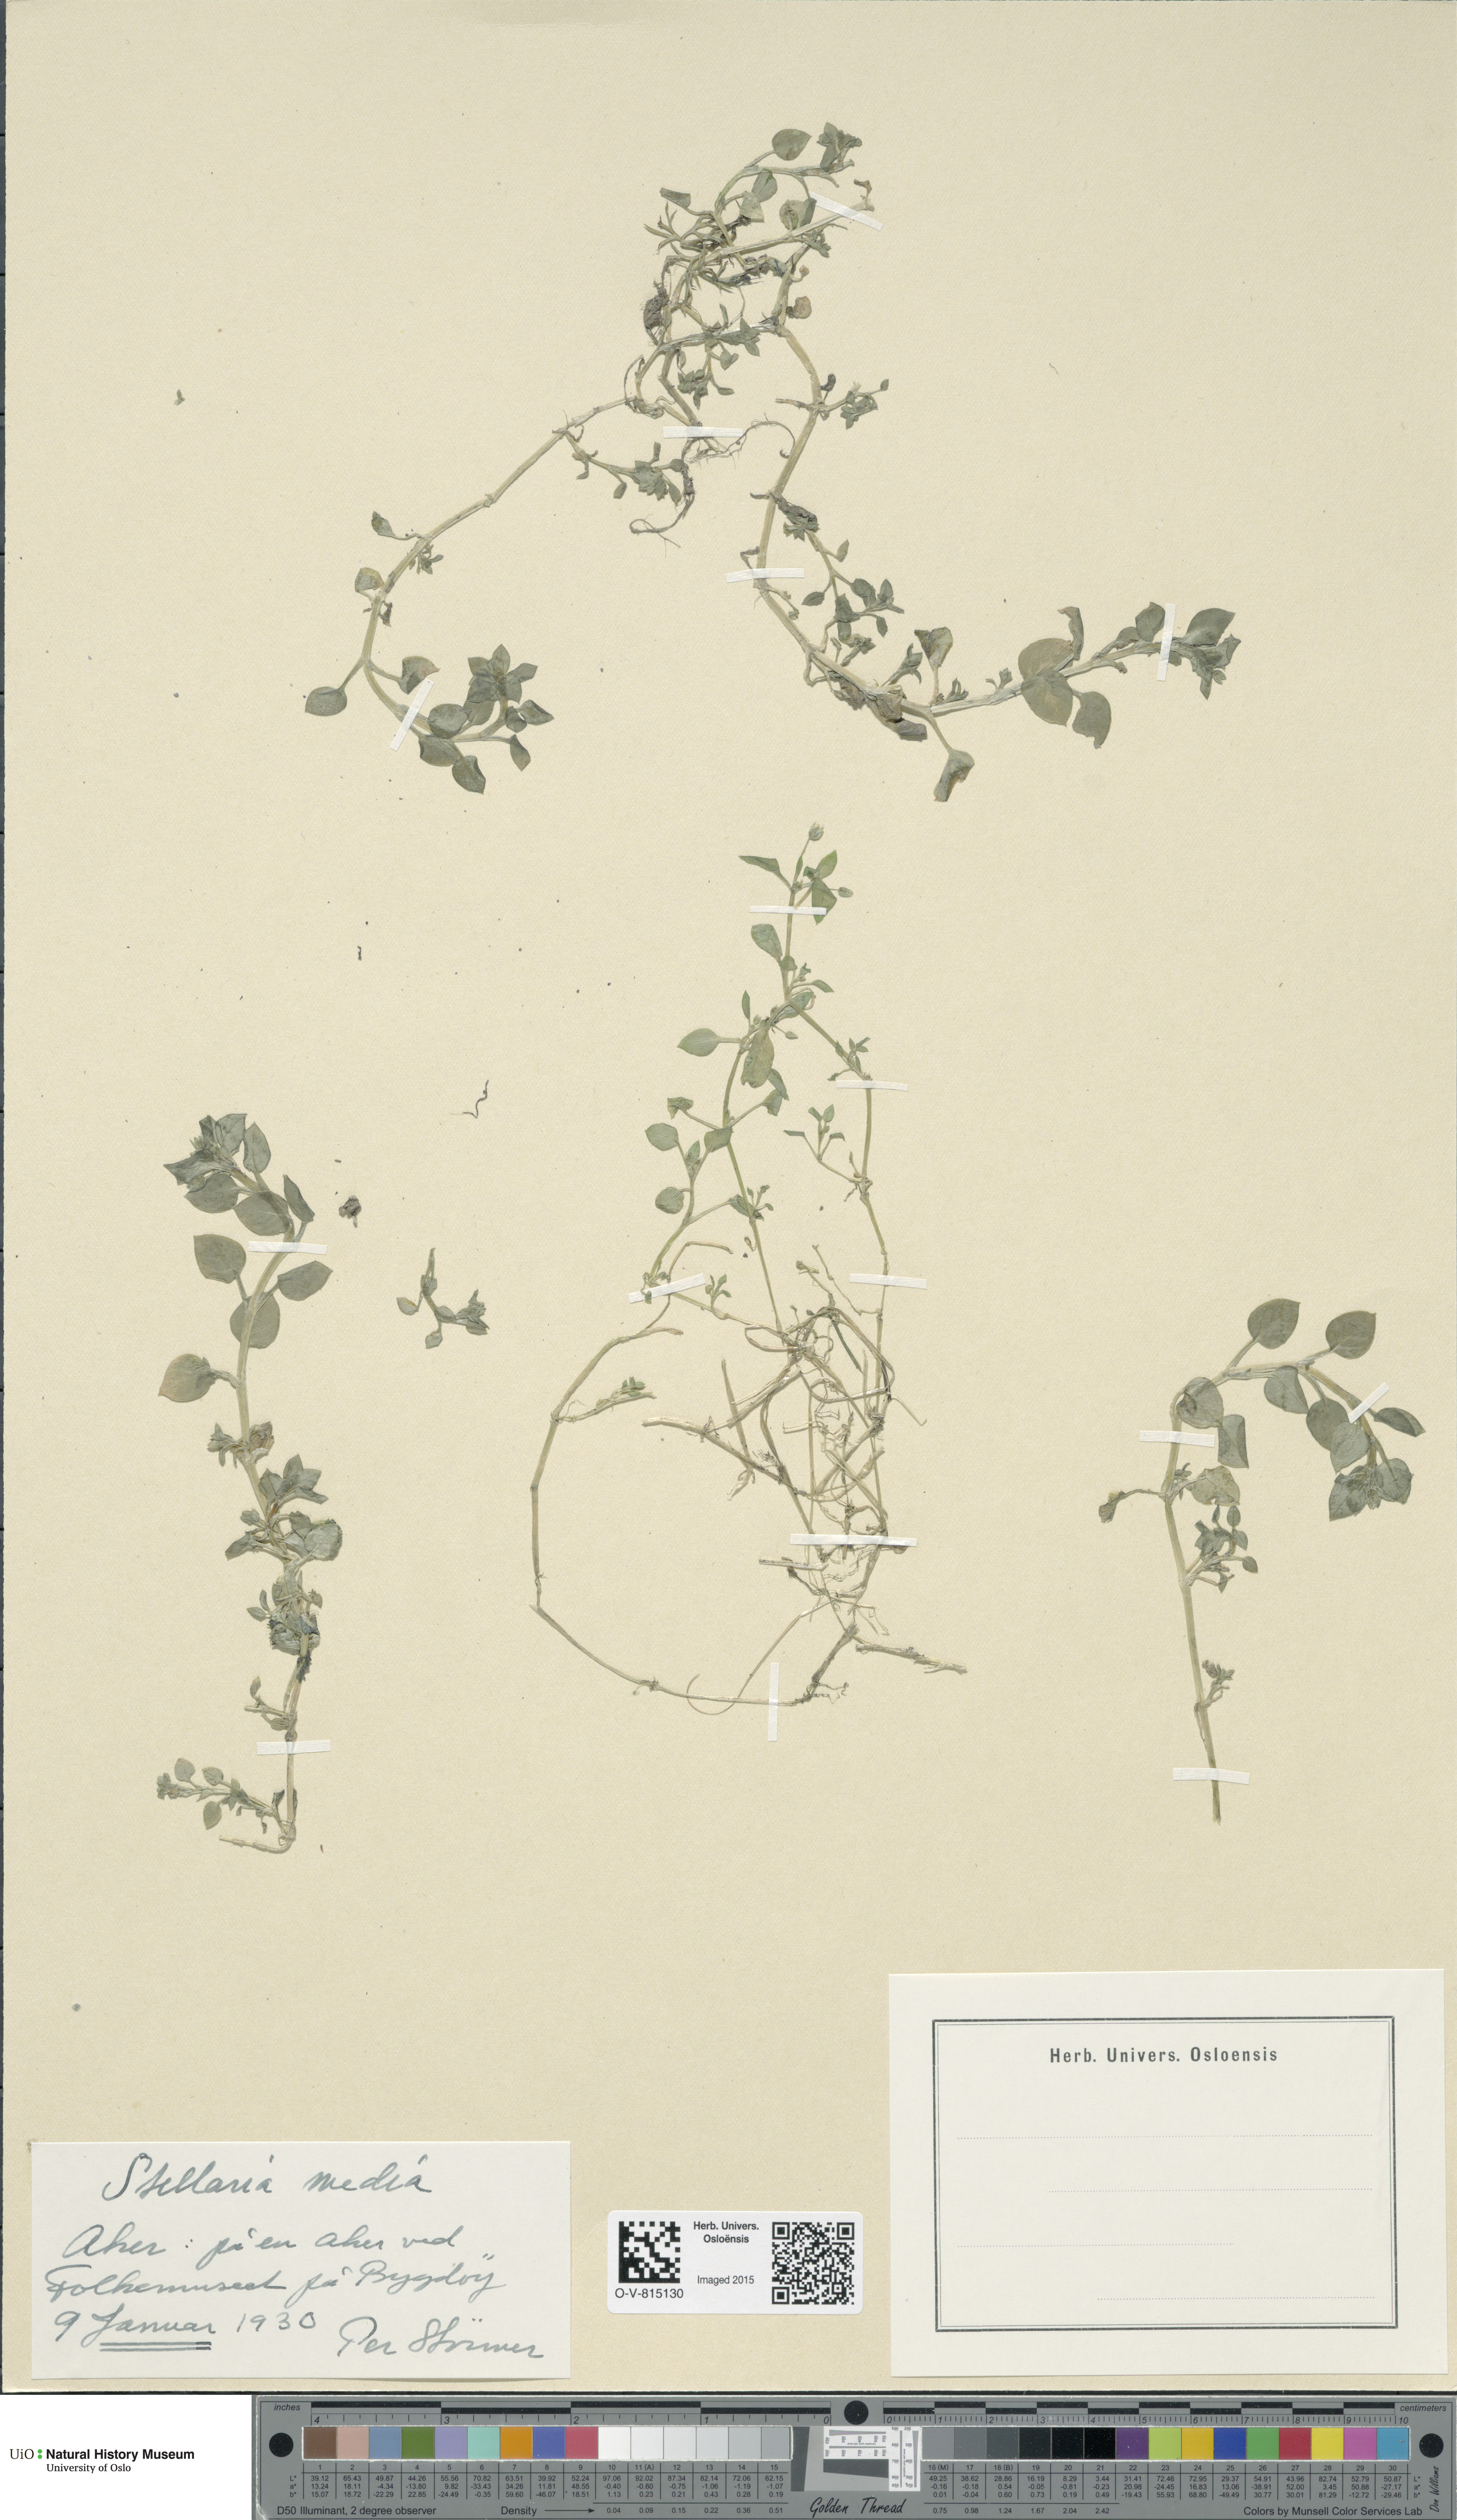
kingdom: Plantae
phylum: Tracheophyta
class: Magnoliopsida
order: Caryophyllales
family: Caryophyllaceae
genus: Stellaria
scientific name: Stellaria media
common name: Common chickweed
